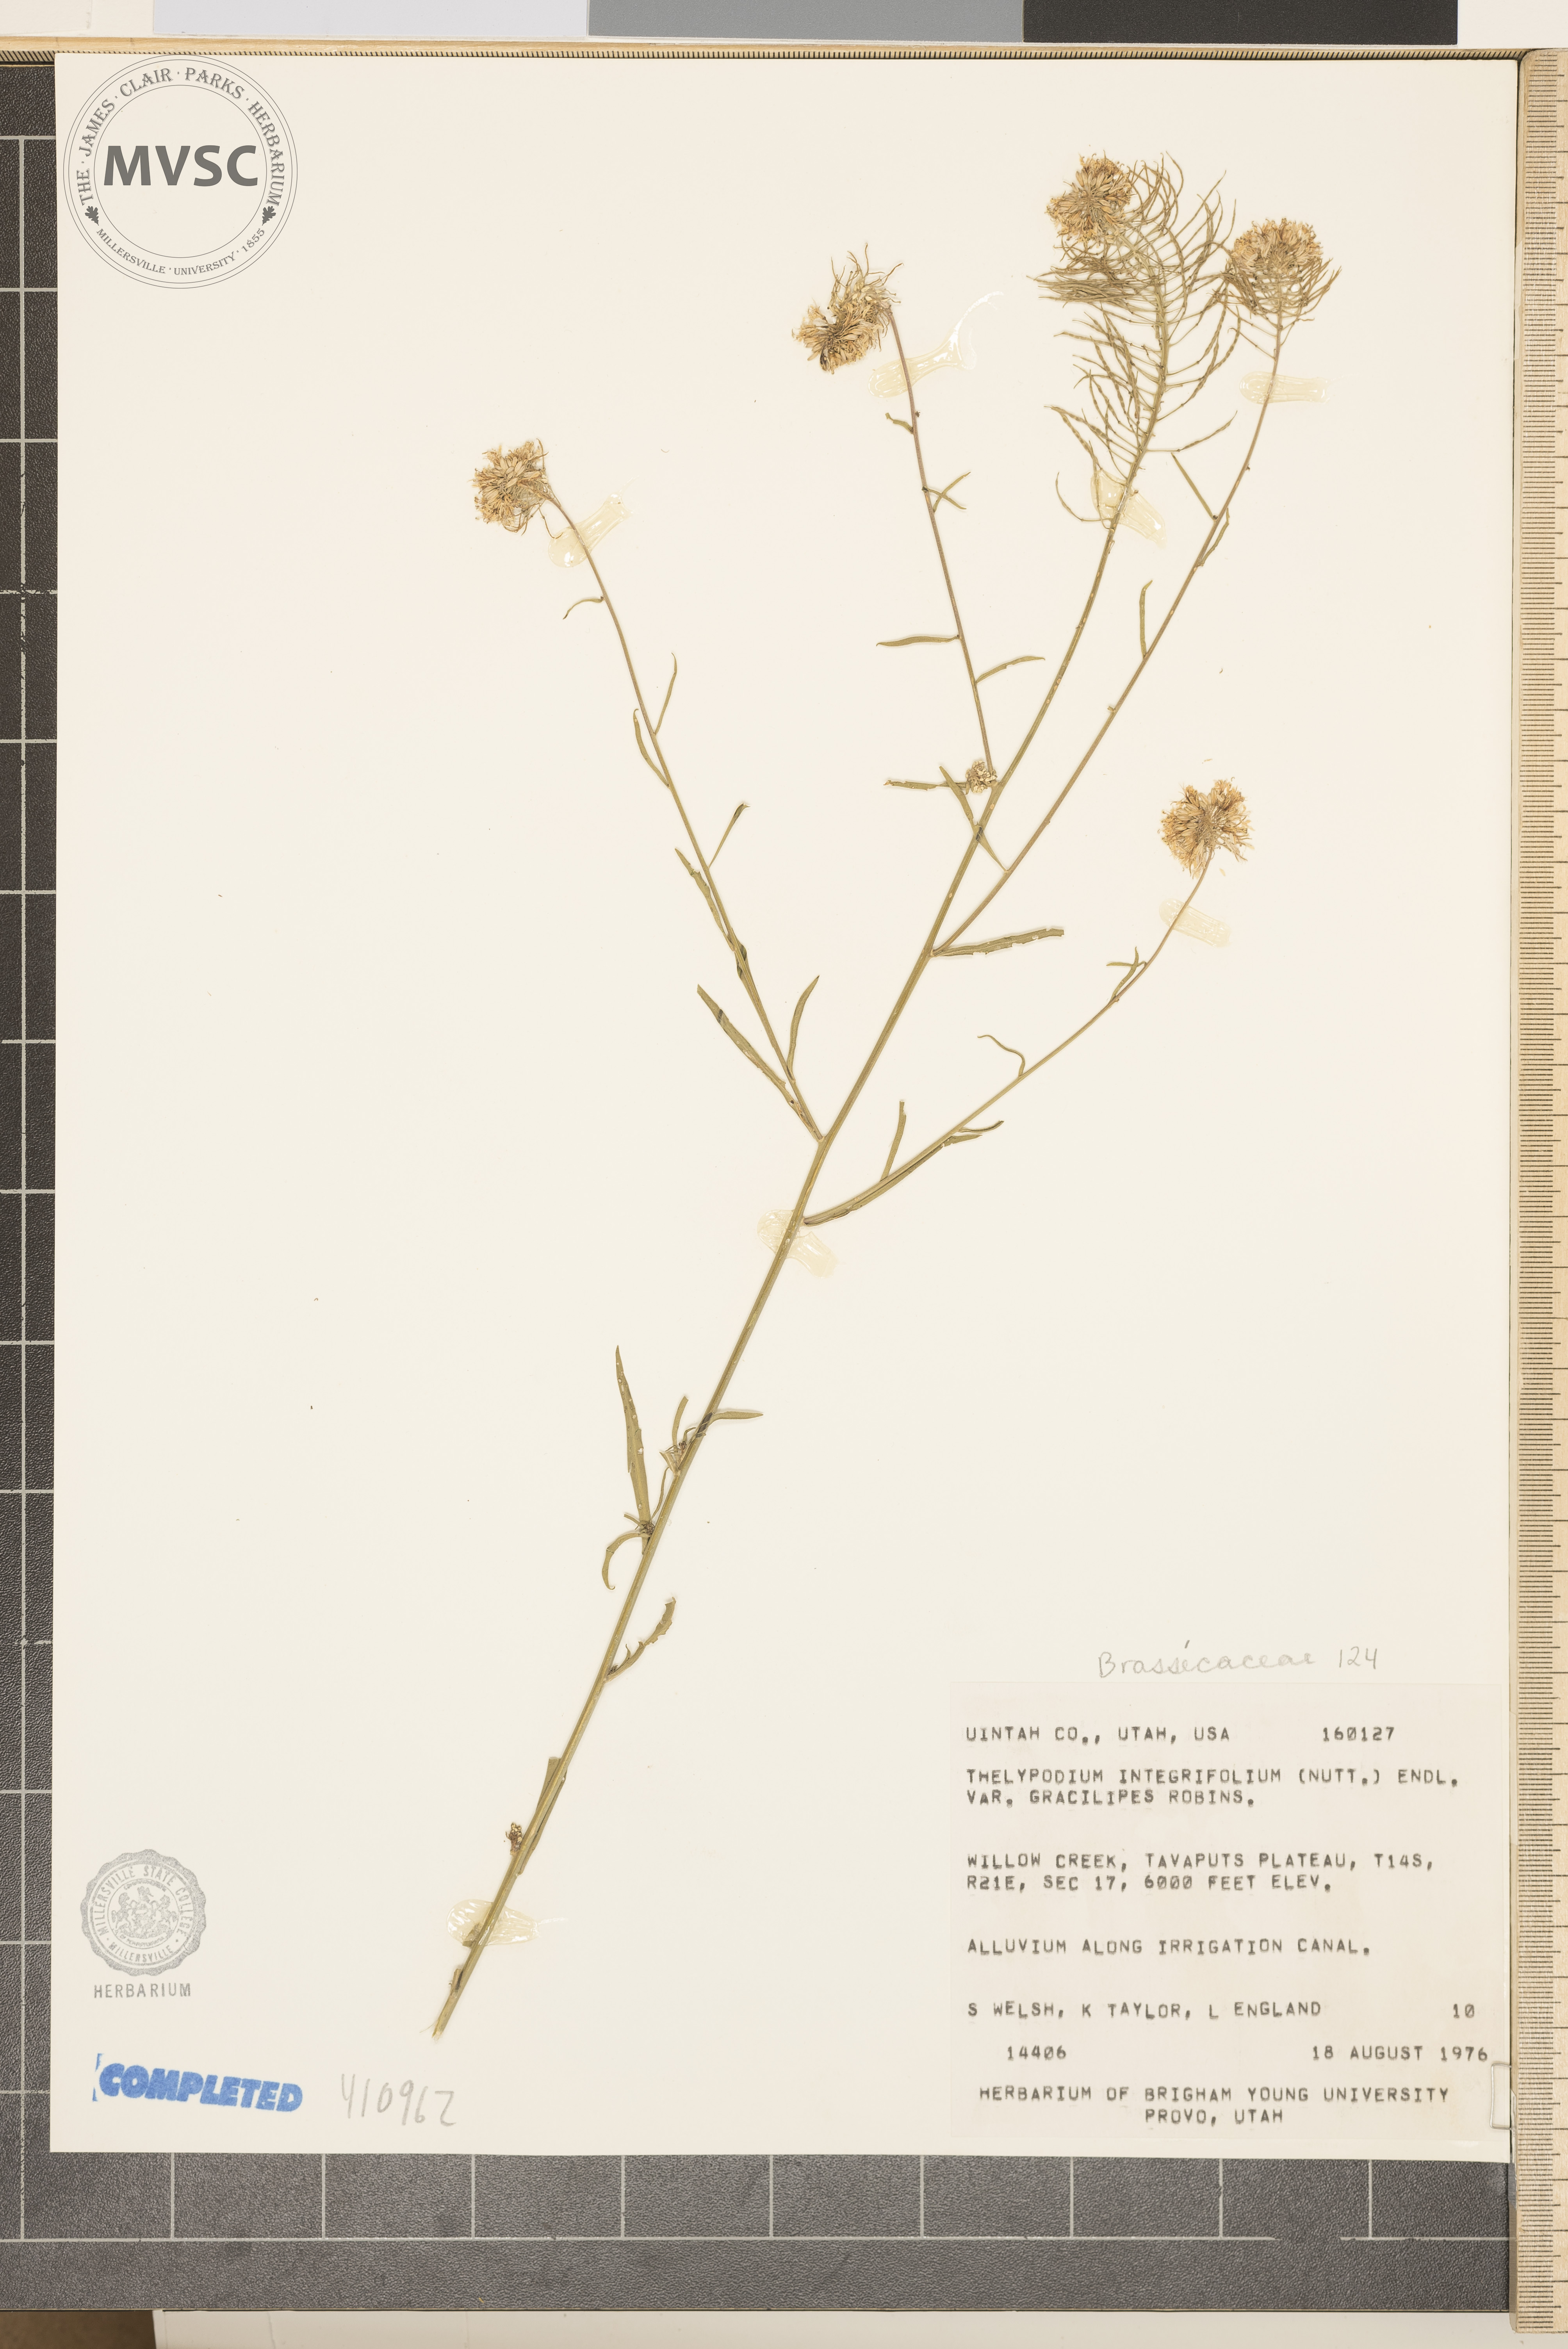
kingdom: Plantae
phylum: Tracheophyta
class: Magnoliopsida
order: Brassicales
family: Brassicaceae
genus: Thelypodium
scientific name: Thelypodium integrifolium
